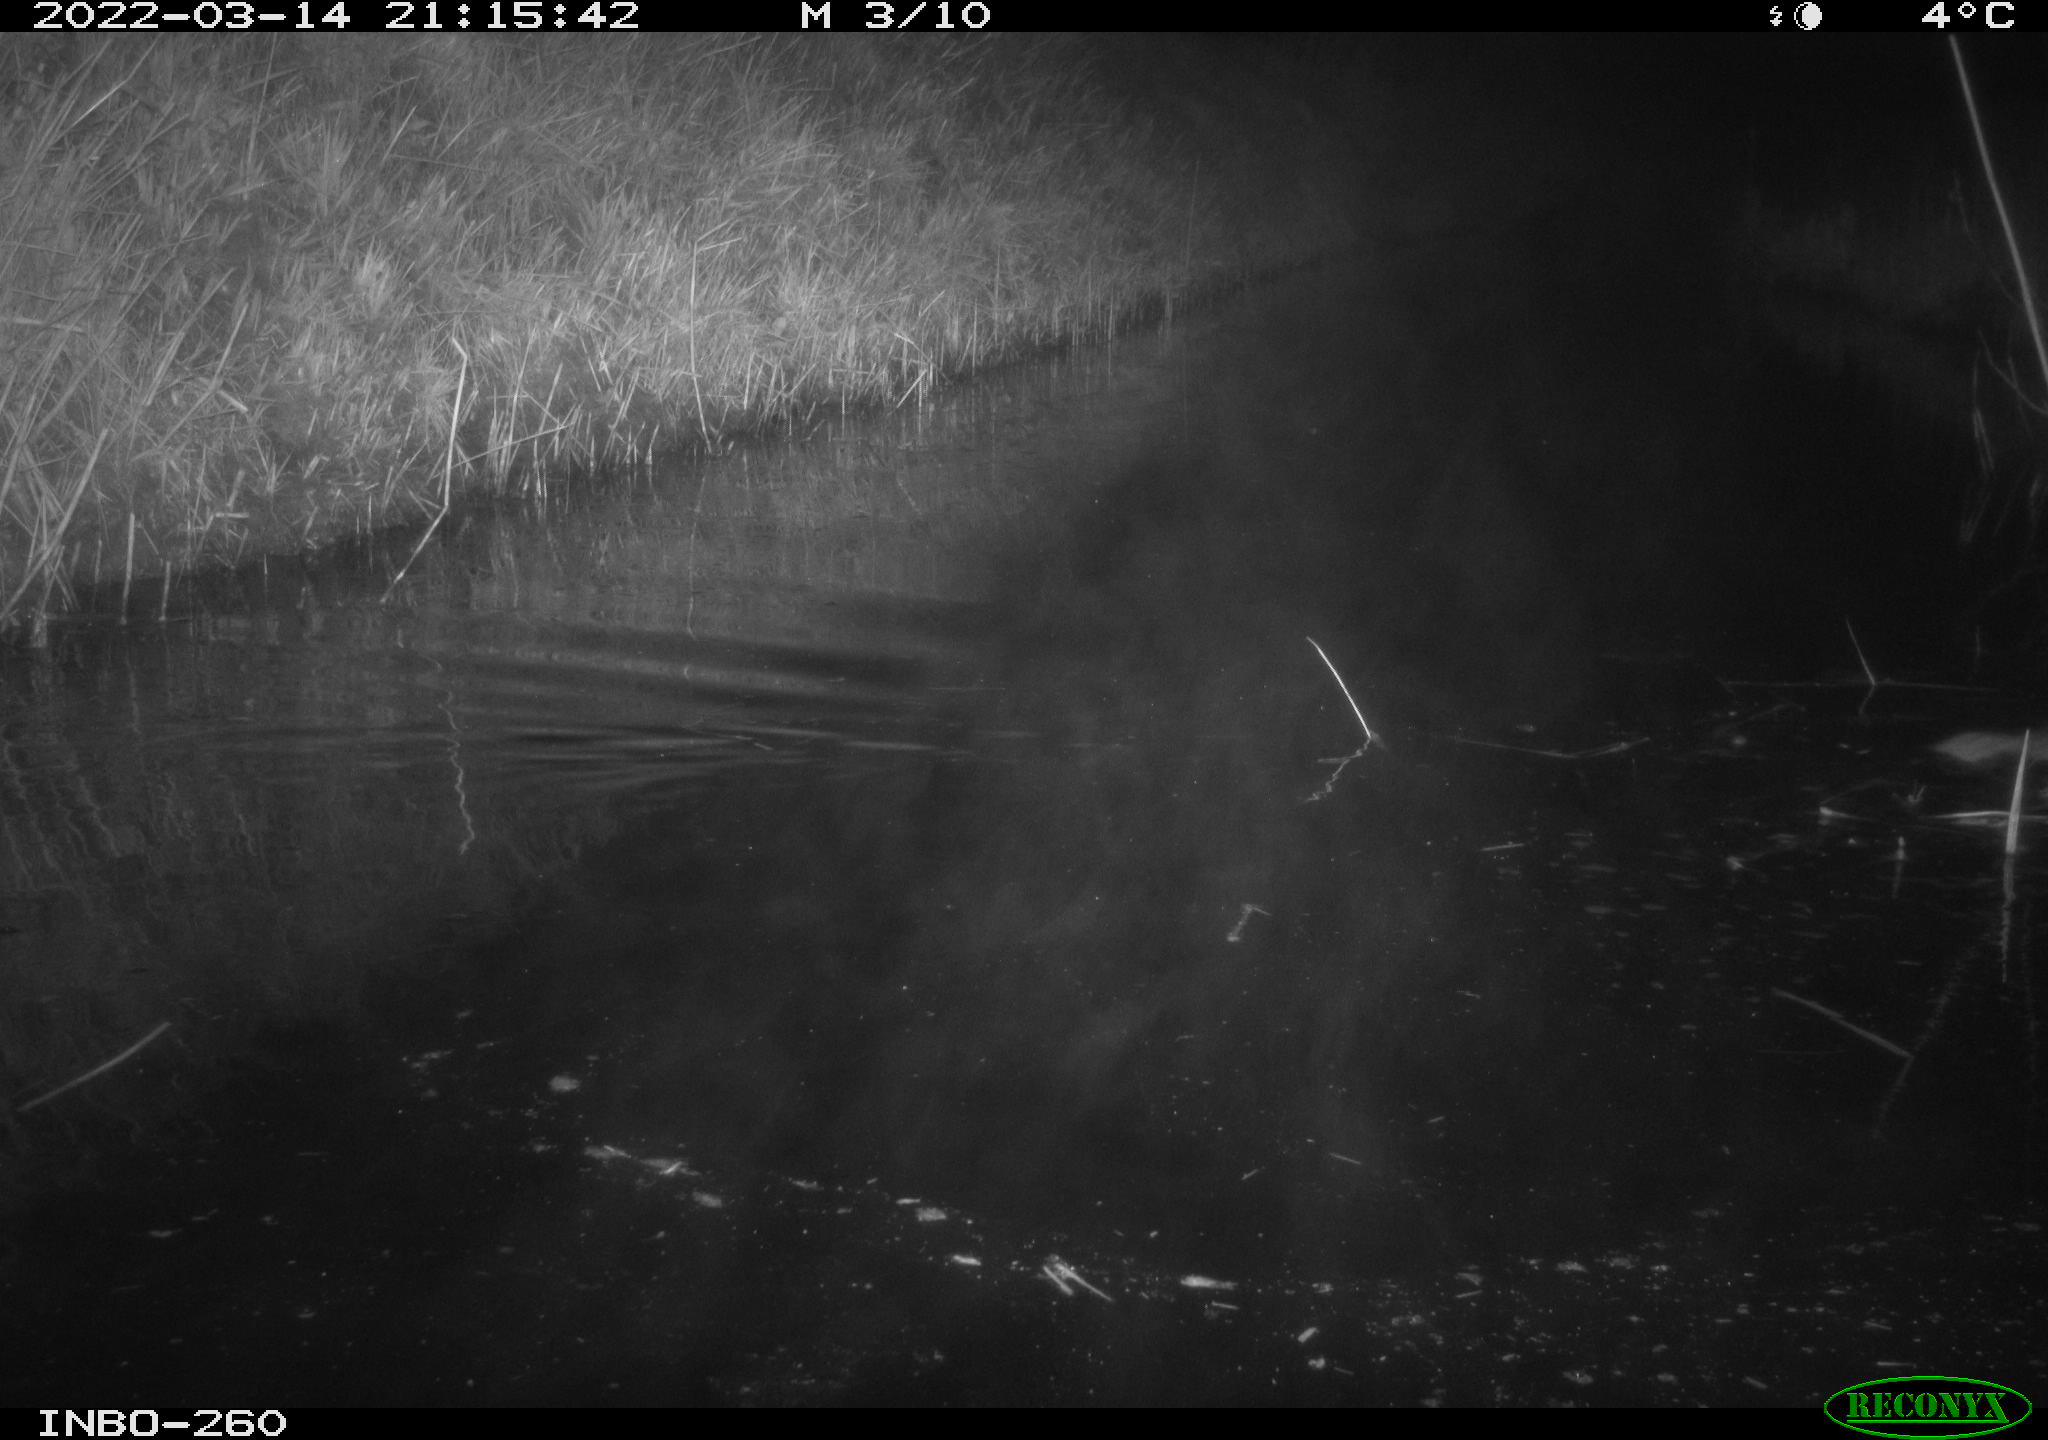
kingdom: Animalia
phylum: Chordata
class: Mammalia
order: Rodentia
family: Muridae
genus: Rattus
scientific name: Rattus norvegicus
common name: Brown rat
